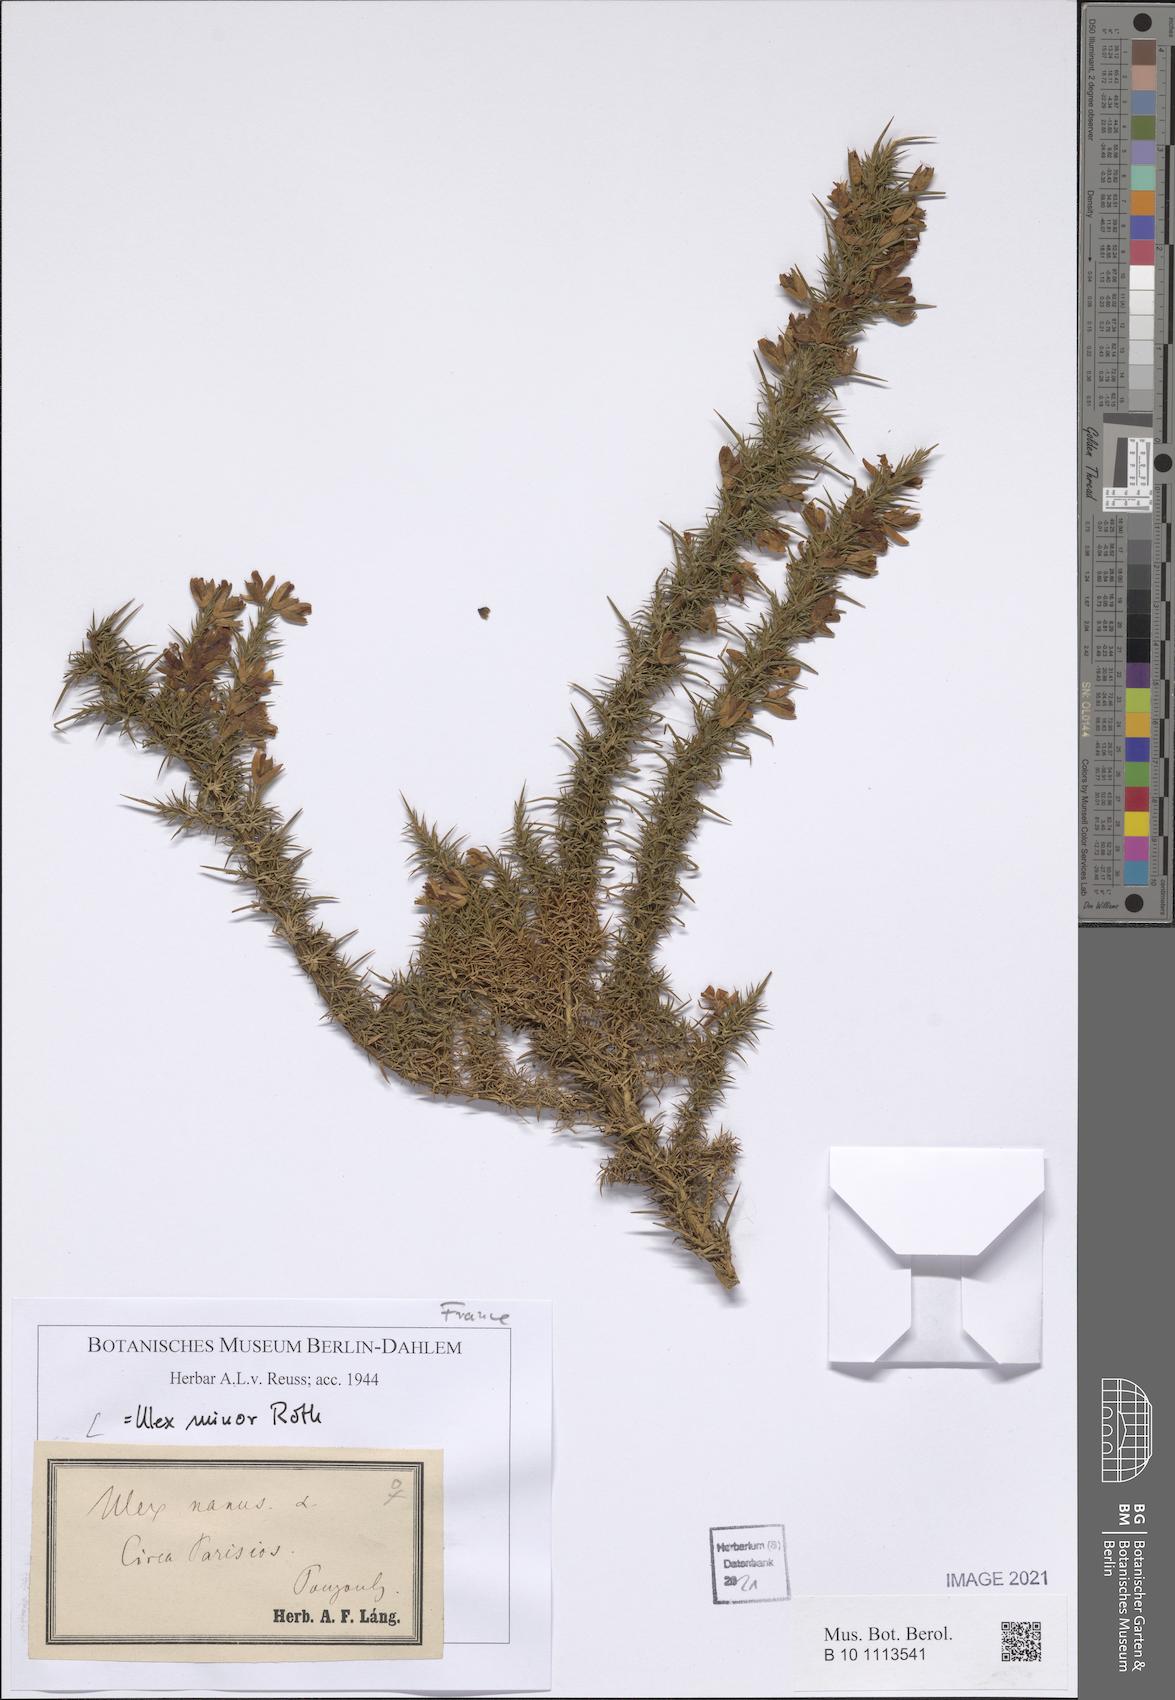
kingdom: Plantae
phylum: Tracheophyta
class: Magnoliopsida
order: Fabales
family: Fabaceae
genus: Ulex
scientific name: Ulex minor
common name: Dwarf gorse
